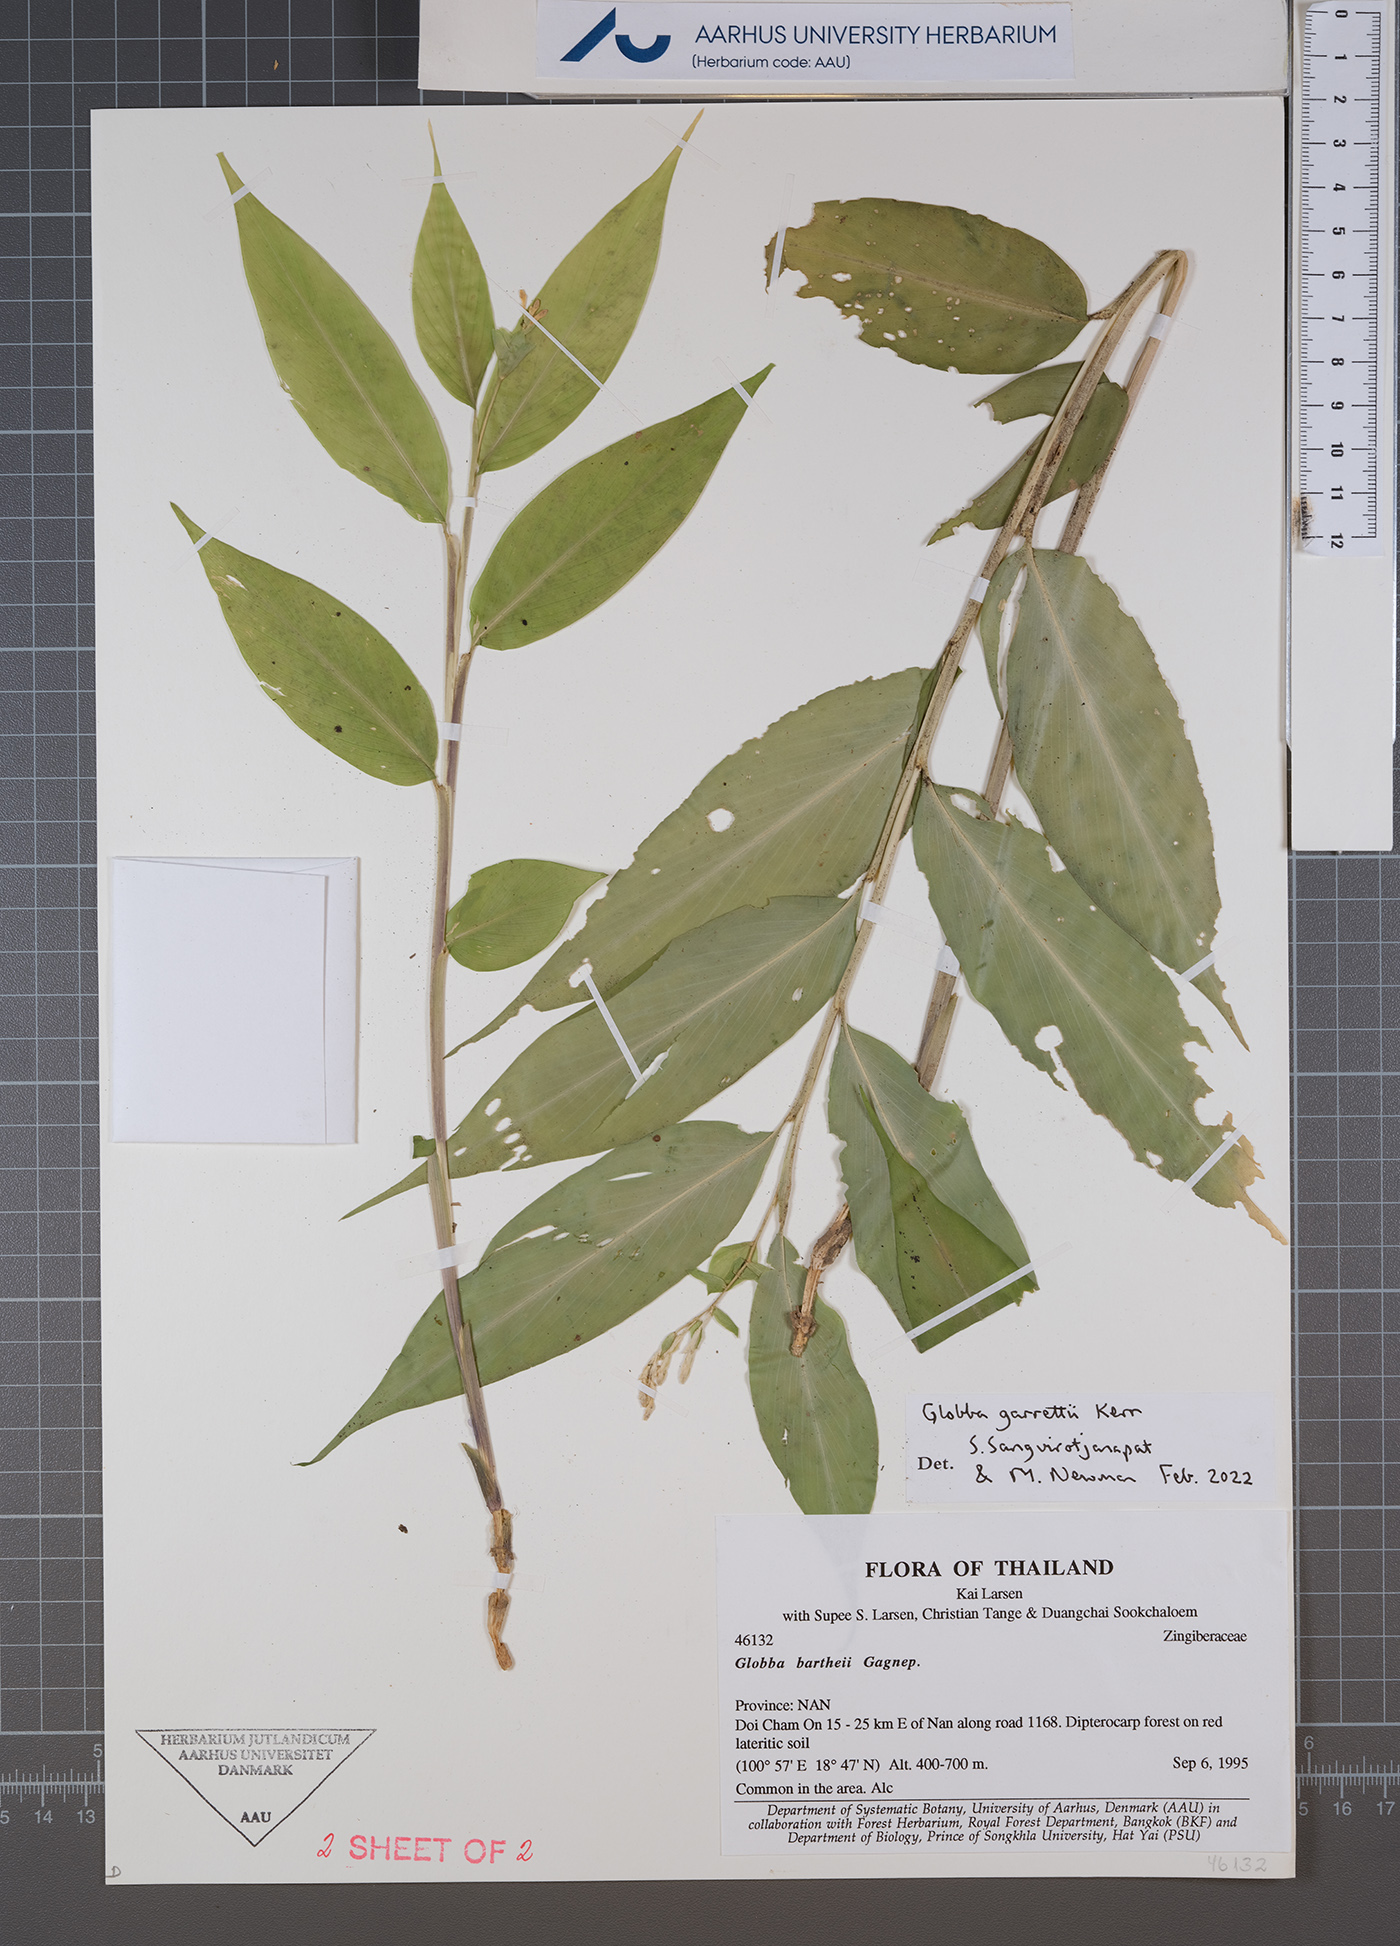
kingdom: Plantae
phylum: Tracheophyta
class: Liliopsida
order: Zingiberales
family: Zingiberaceae
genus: Globba
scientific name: Globba garrettii
